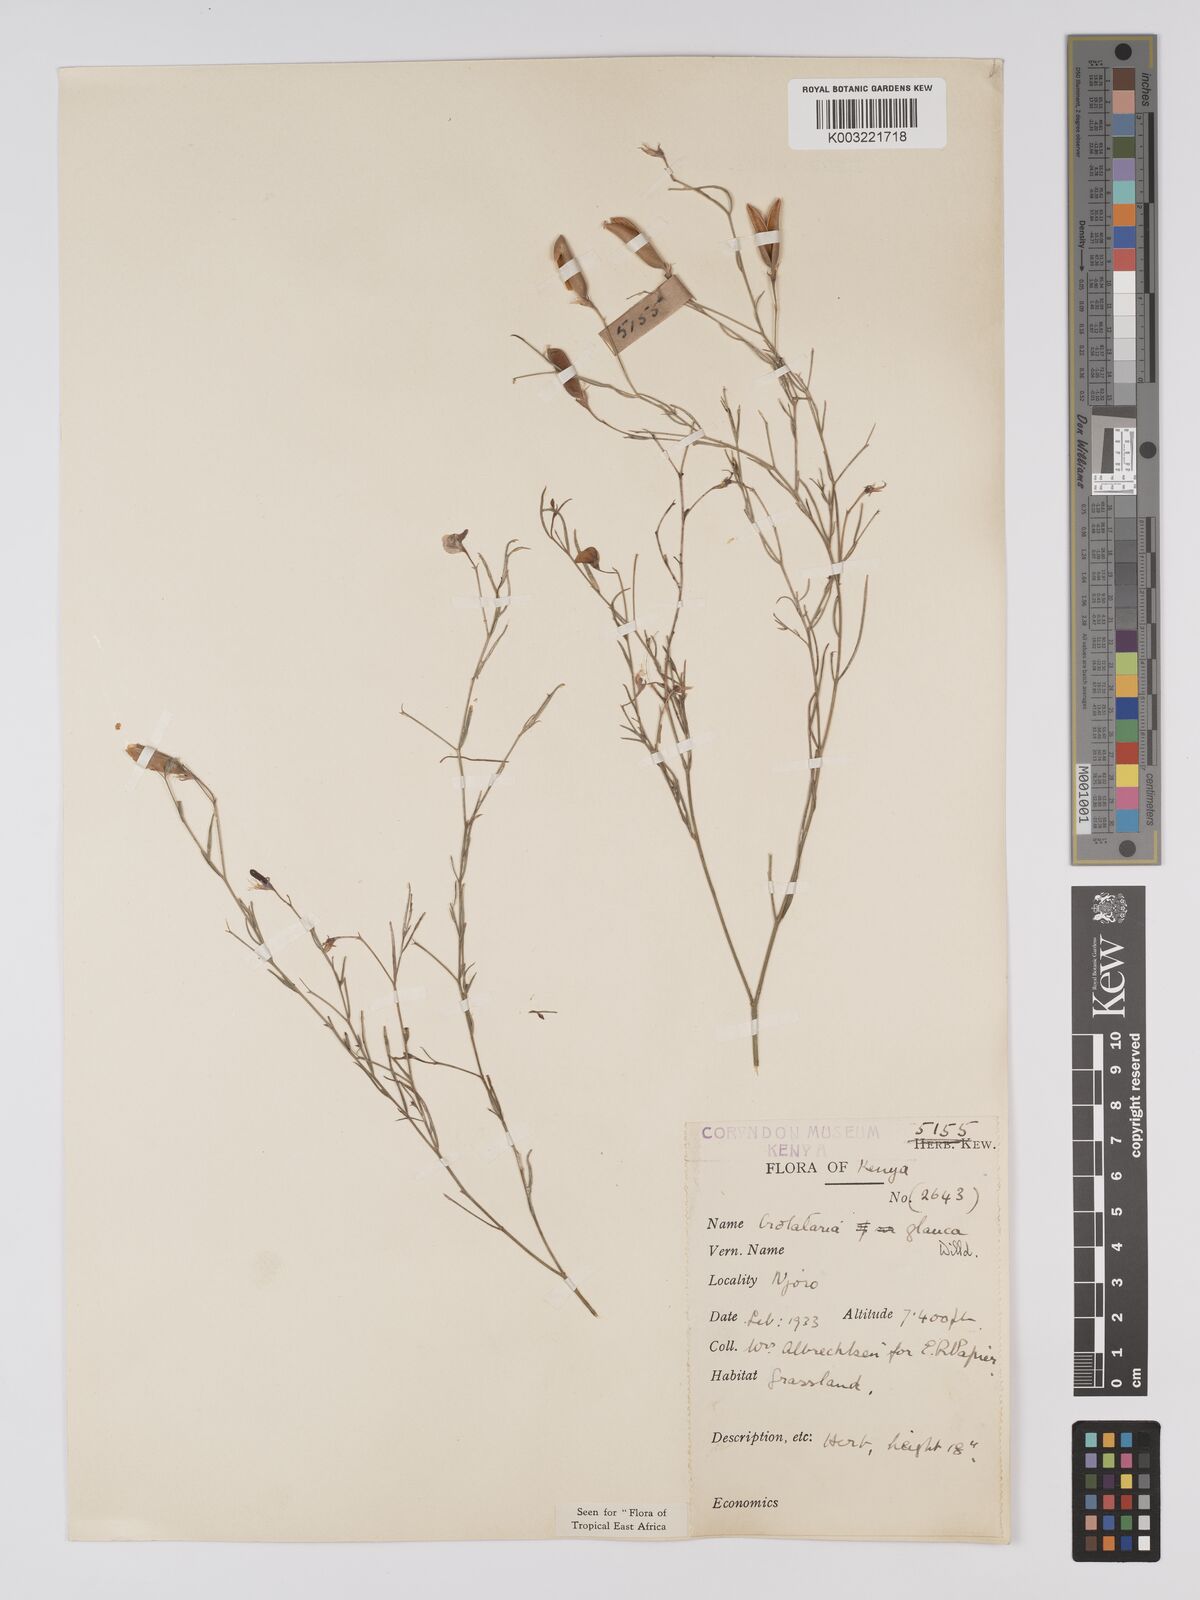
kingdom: Plantae
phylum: Tracheophyta
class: Magnoliopsida
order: Fabales
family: Fabaceae
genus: Crotalaria
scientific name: Crotalaria glauca
